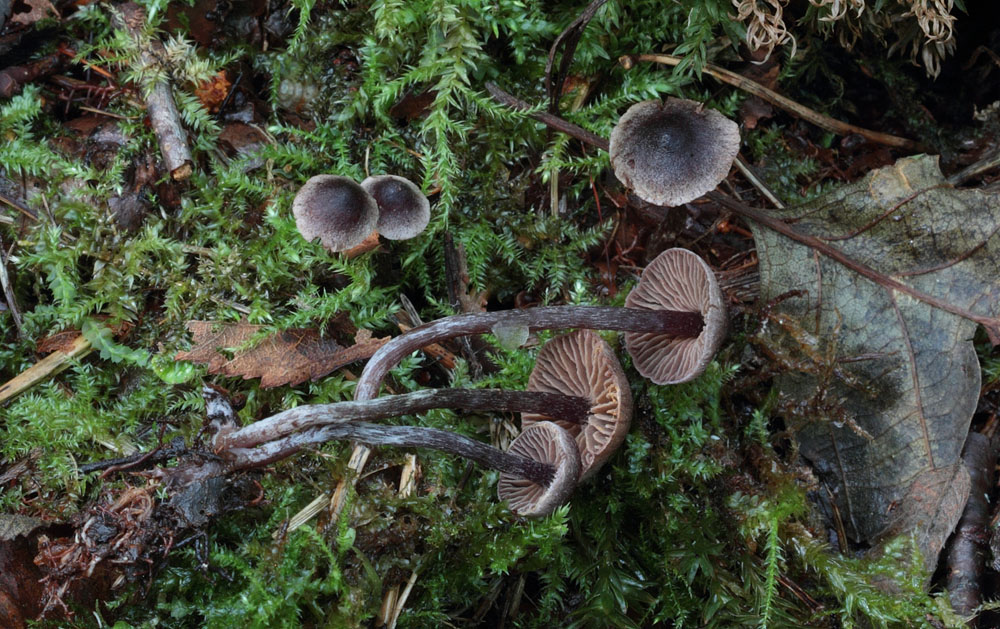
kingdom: Fungi
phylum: Basidiomycota
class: Agaricomycetes
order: Agaricales
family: Cortinariaceae
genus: Cortinarius
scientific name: Cortinarius americanus
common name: natsort slørhat
